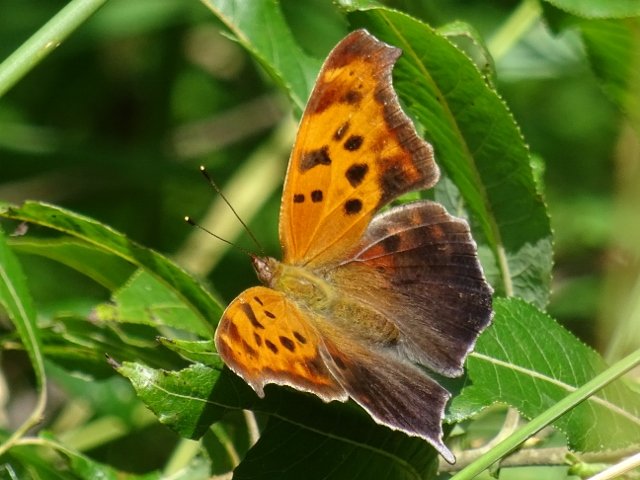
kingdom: Animalia
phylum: Arthropoda
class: Insecta
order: Lepidoptera
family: Nymphalidae
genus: Polygonia
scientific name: Polygonia interrogationis
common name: Question Mark
